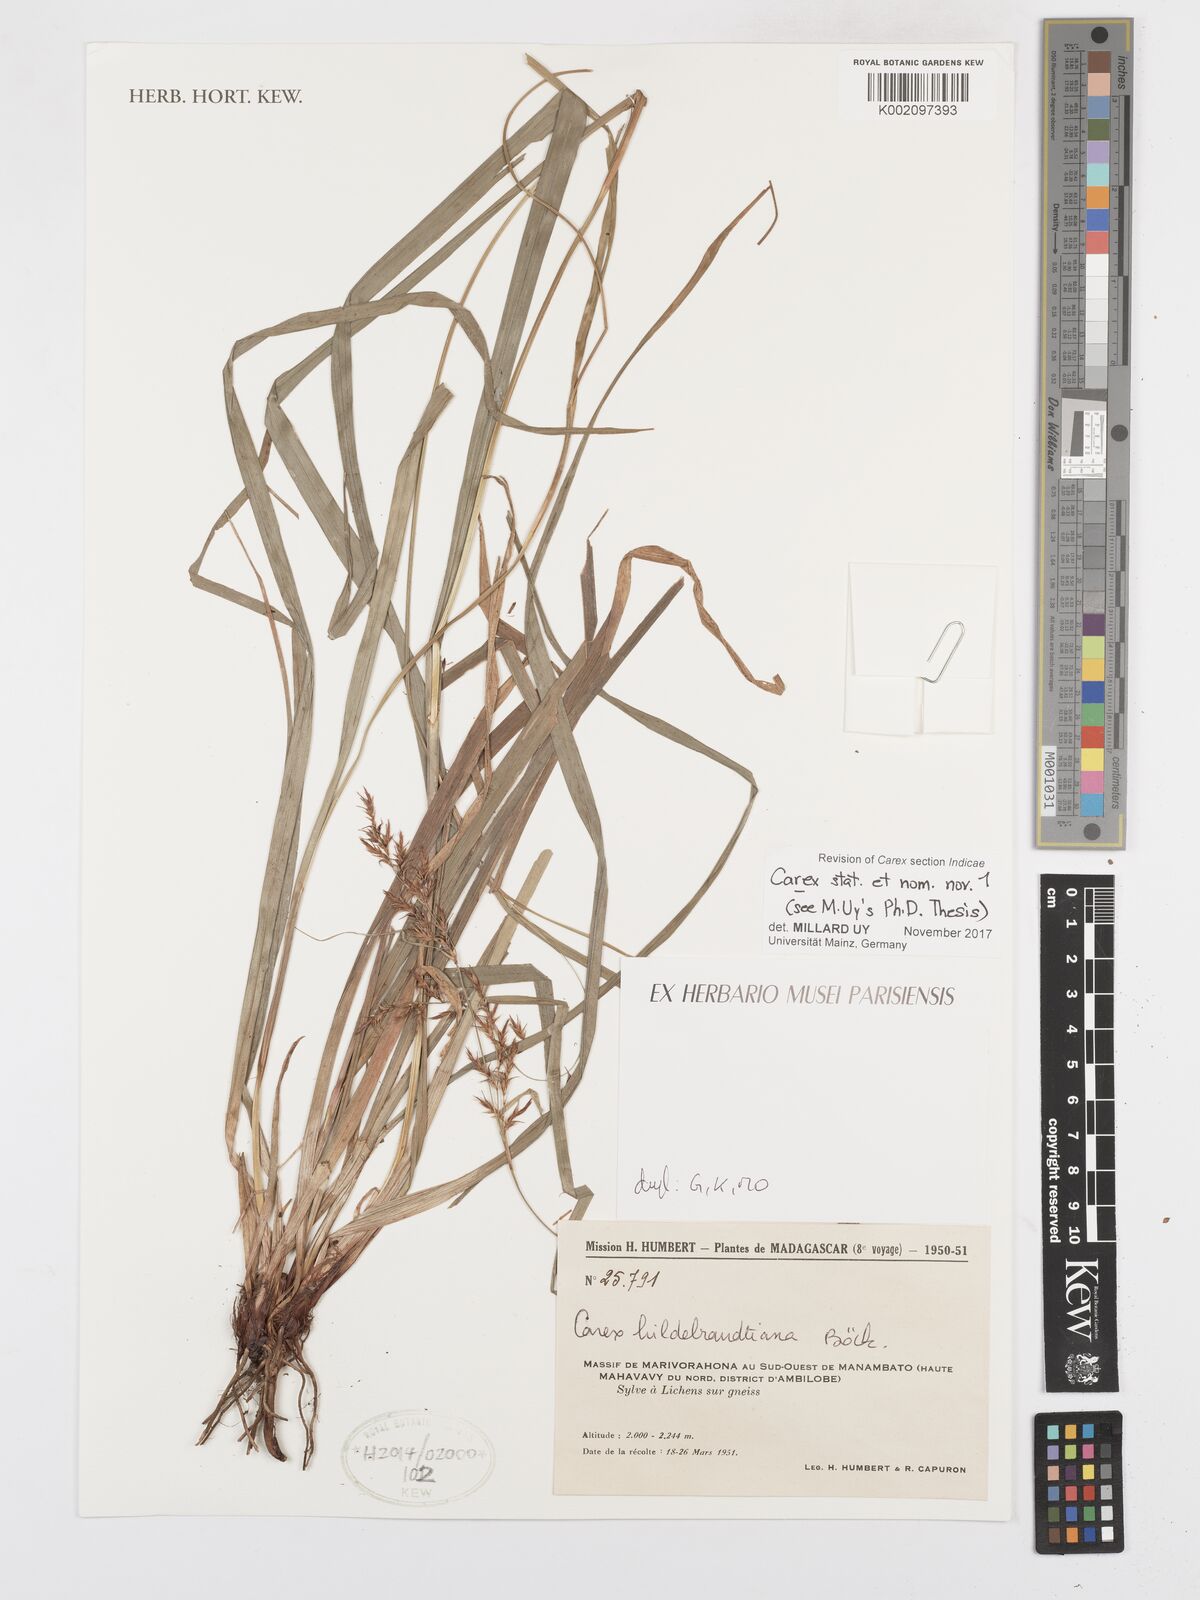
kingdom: Plantae
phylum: Tracheophyta
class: Liliopsida
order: Poales
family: Cyperaceae
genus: Carex
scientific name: Carex
